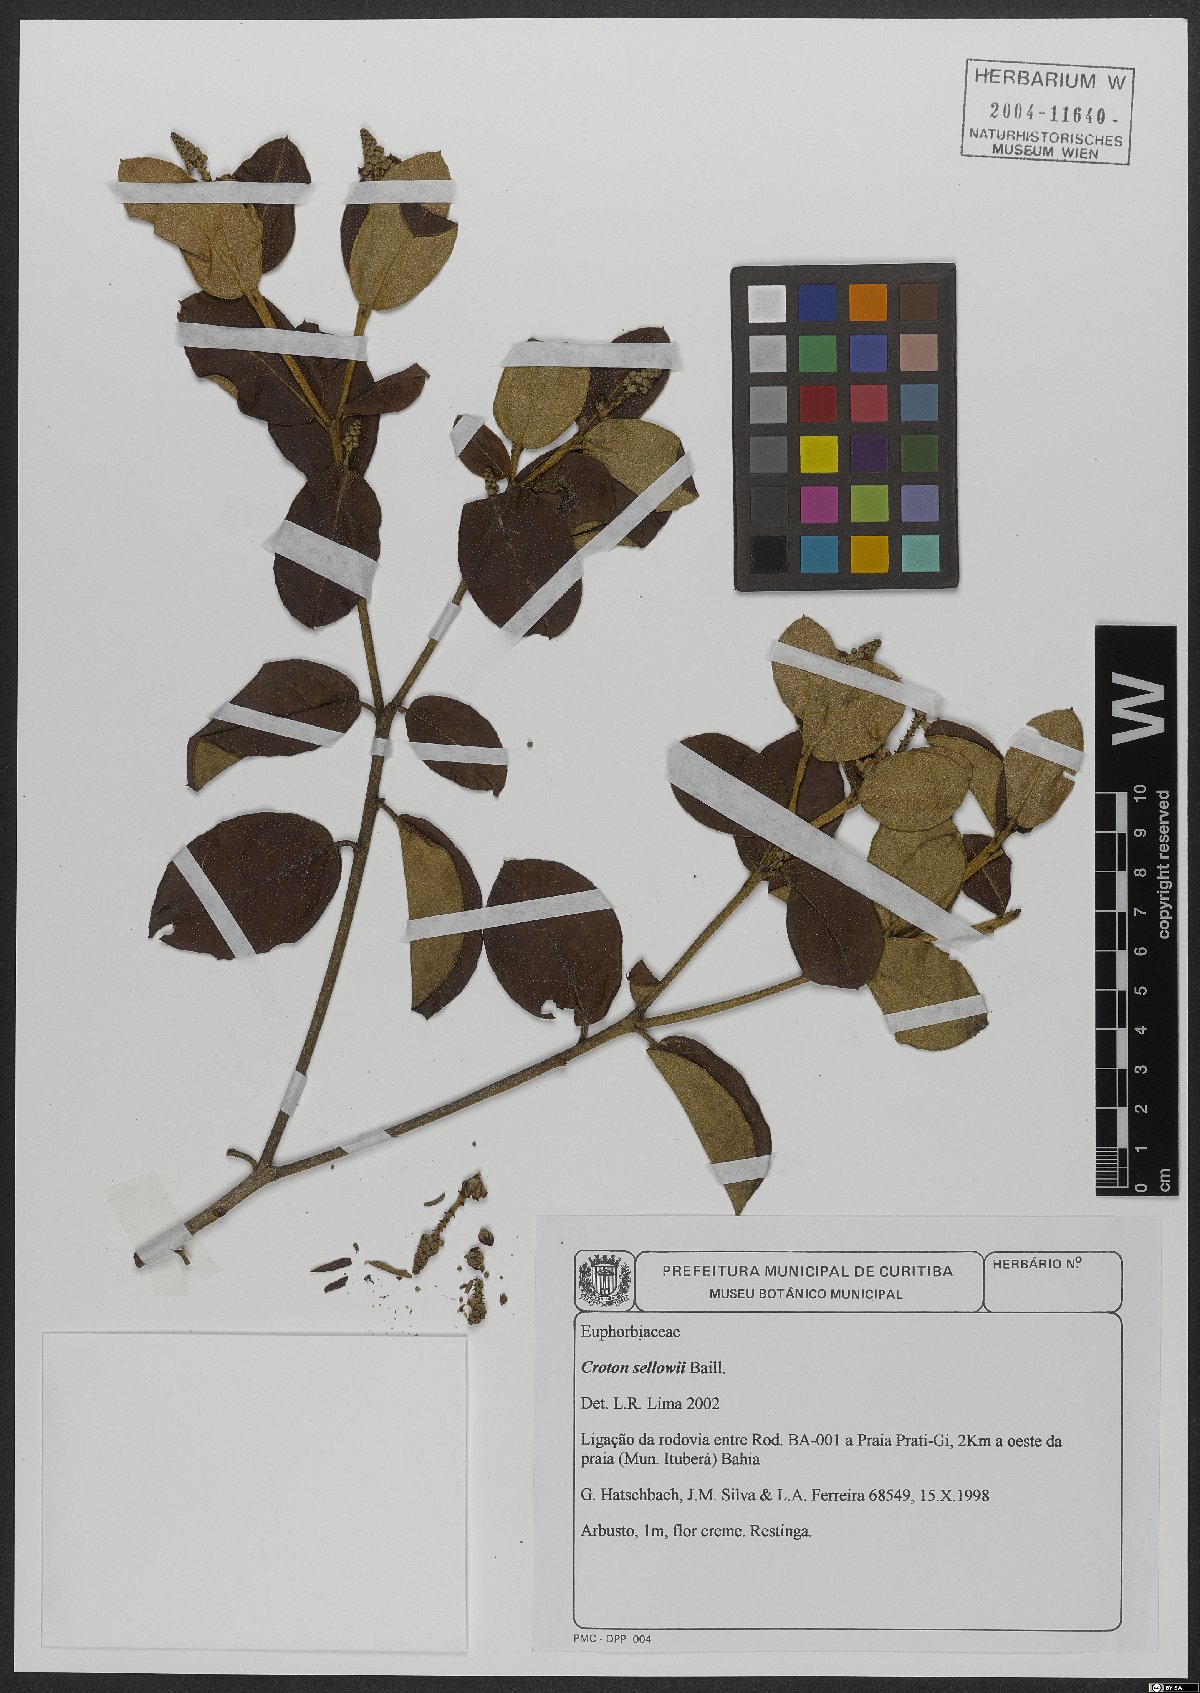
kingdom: Plantae
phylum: Tracheophyta
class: Magnoliopsida
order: Malpighiales
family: Euphorbiaceae
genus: Croton
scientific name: Croton sellowii
